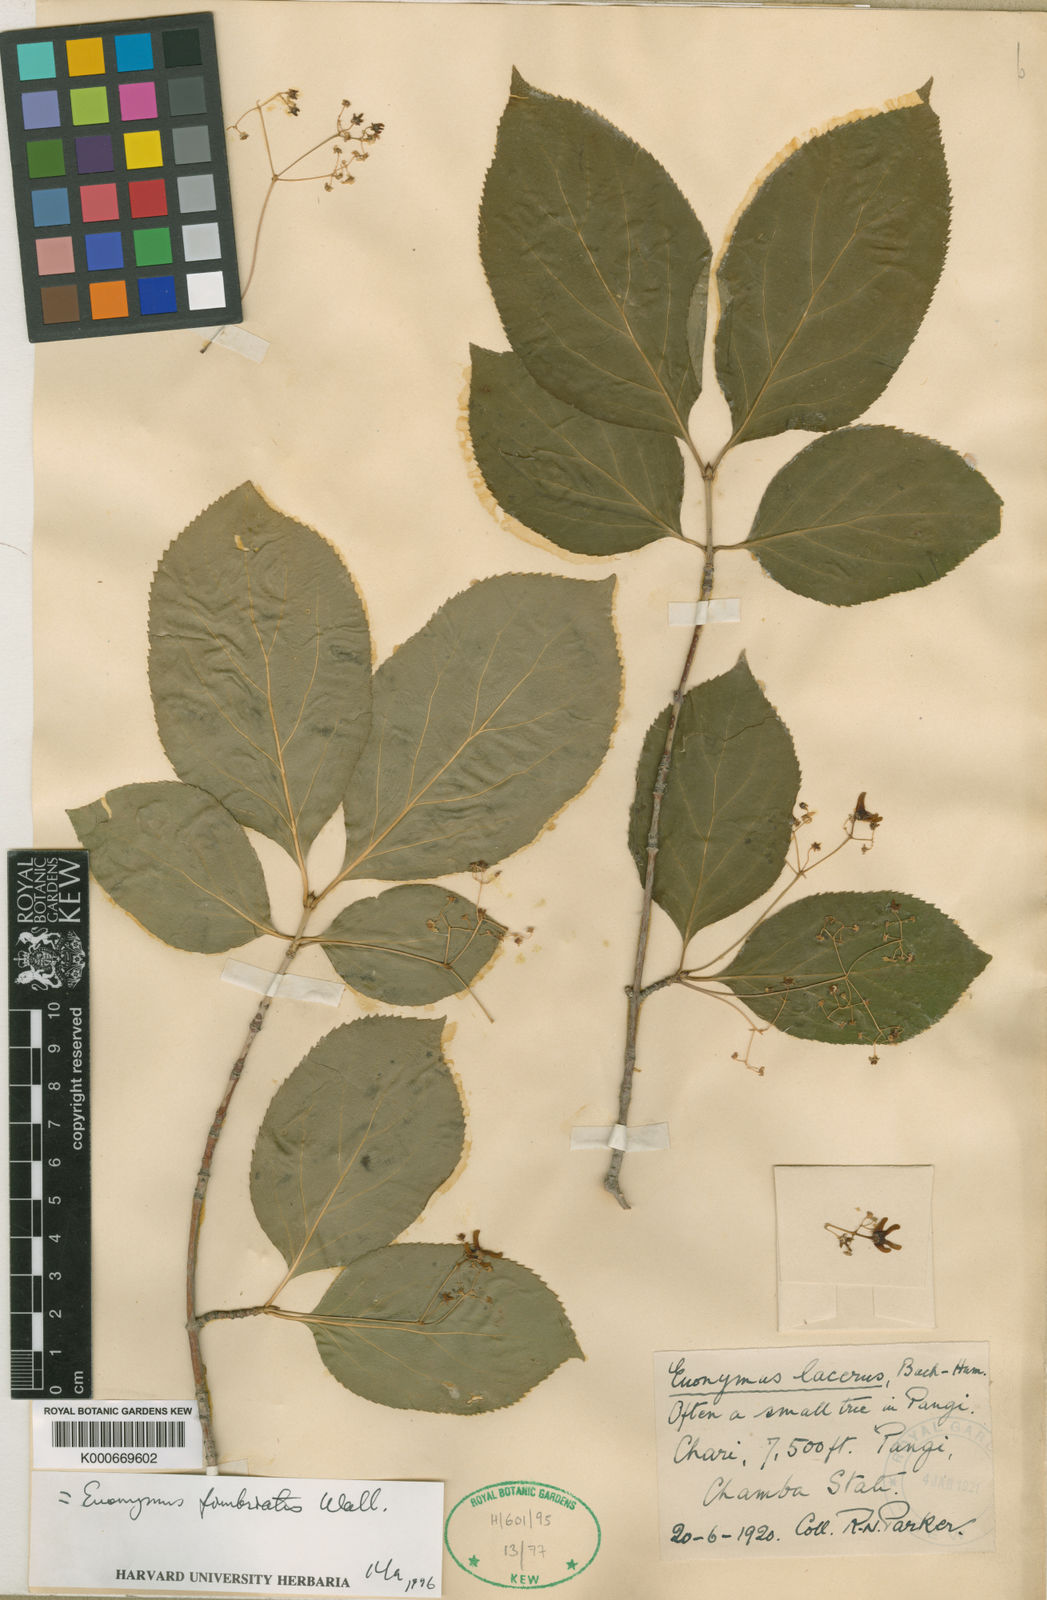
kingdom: Plantae
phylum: Tracheophyta
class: Magnoliopsida
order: Celastrales
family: Celastraceae
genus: Euonymus
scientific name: Euonymus fimbriatus
